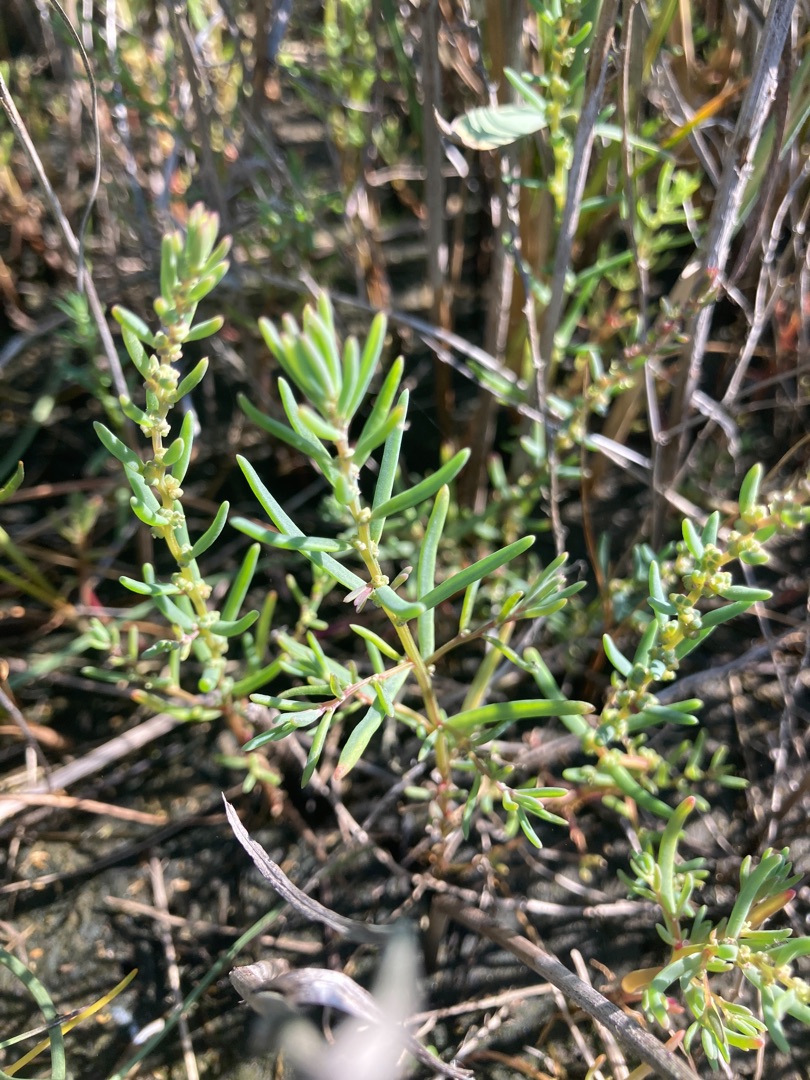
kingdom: Plantae
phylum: Tracheophyta
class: Magnoliopsida
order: Caryophyllales
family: Amaranthaceae
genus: Suaeda
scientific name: Suaeda maritima
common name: Strandgåsefod
